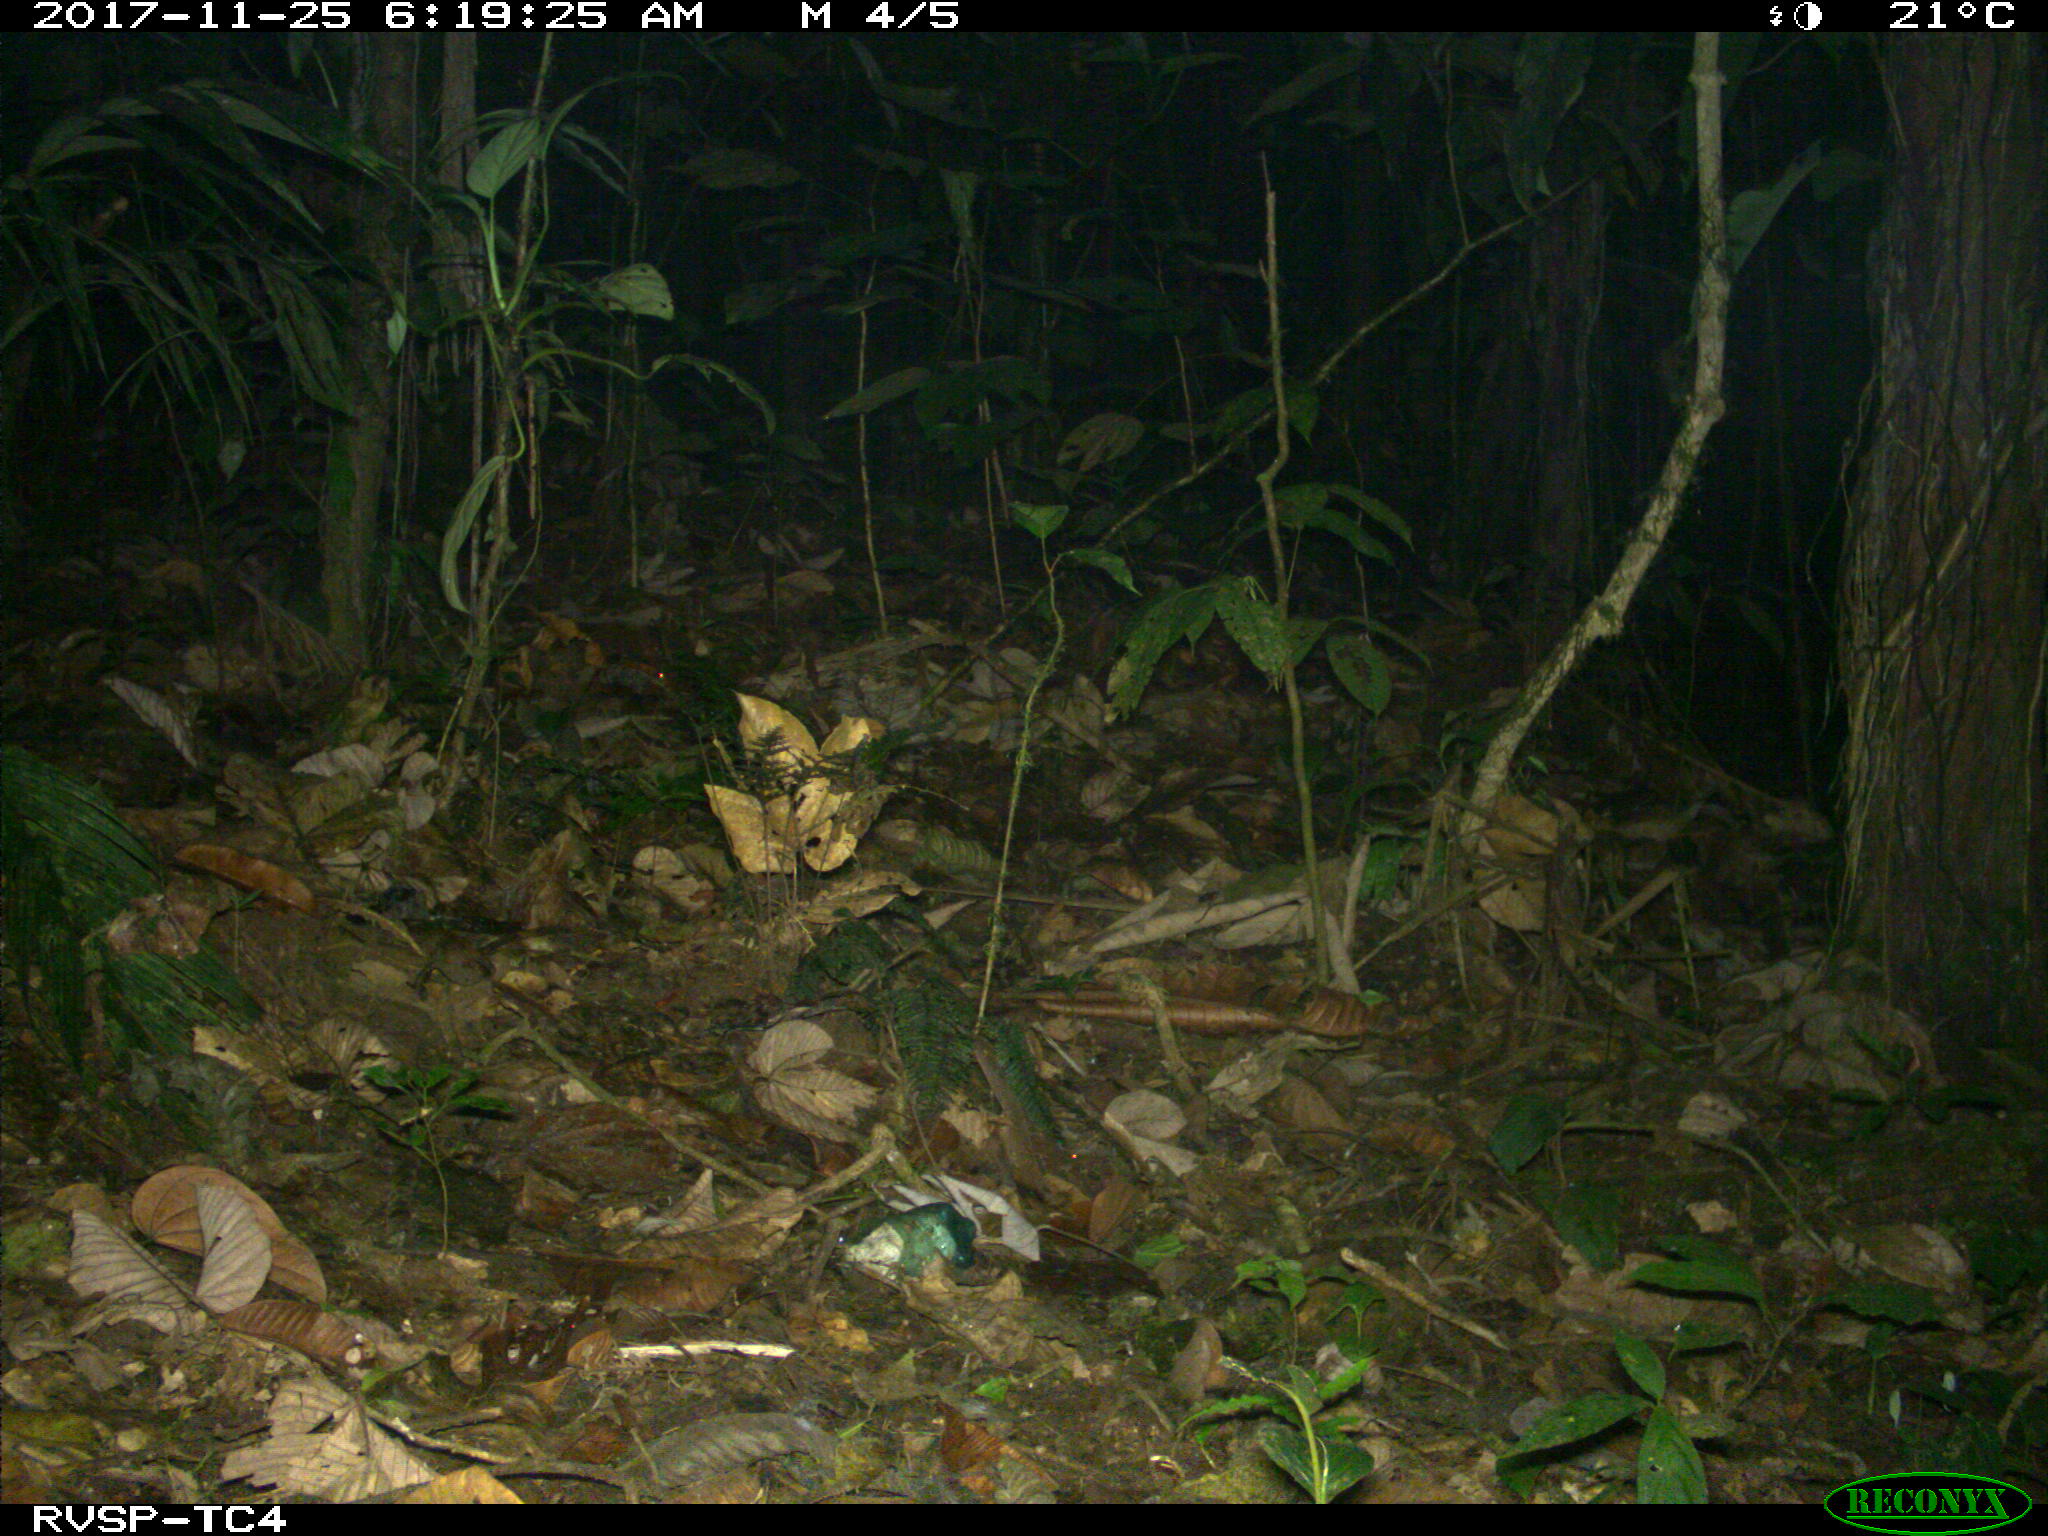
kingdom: Animalia
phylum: Chordata
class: Mammalia
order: Rodentia
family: Dasyproctidae
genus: Dasyprocta
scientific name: Dasyprocta punctata
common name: Central american agouti
